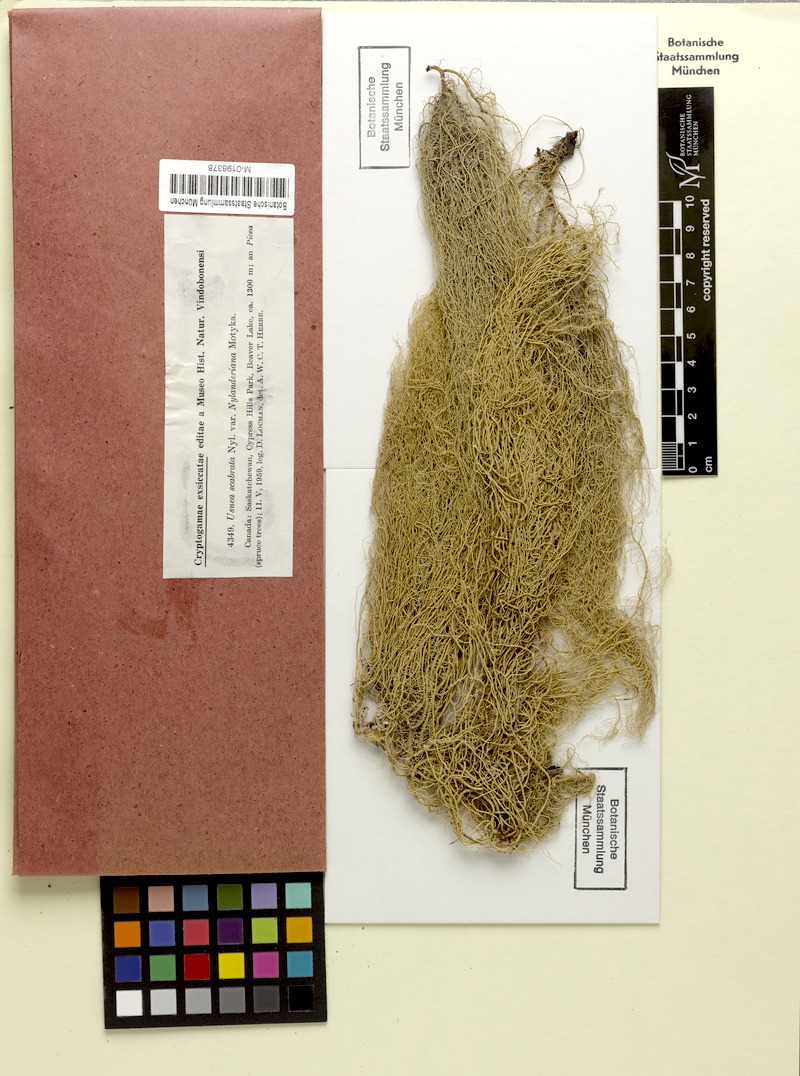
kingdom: Fungi
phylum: Ascomycota
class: Lecanoromycetes
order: Lecanorales
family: Parmeliaceae
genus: Usnea
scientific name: Usnea barbata
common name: Old man's beard lichen
